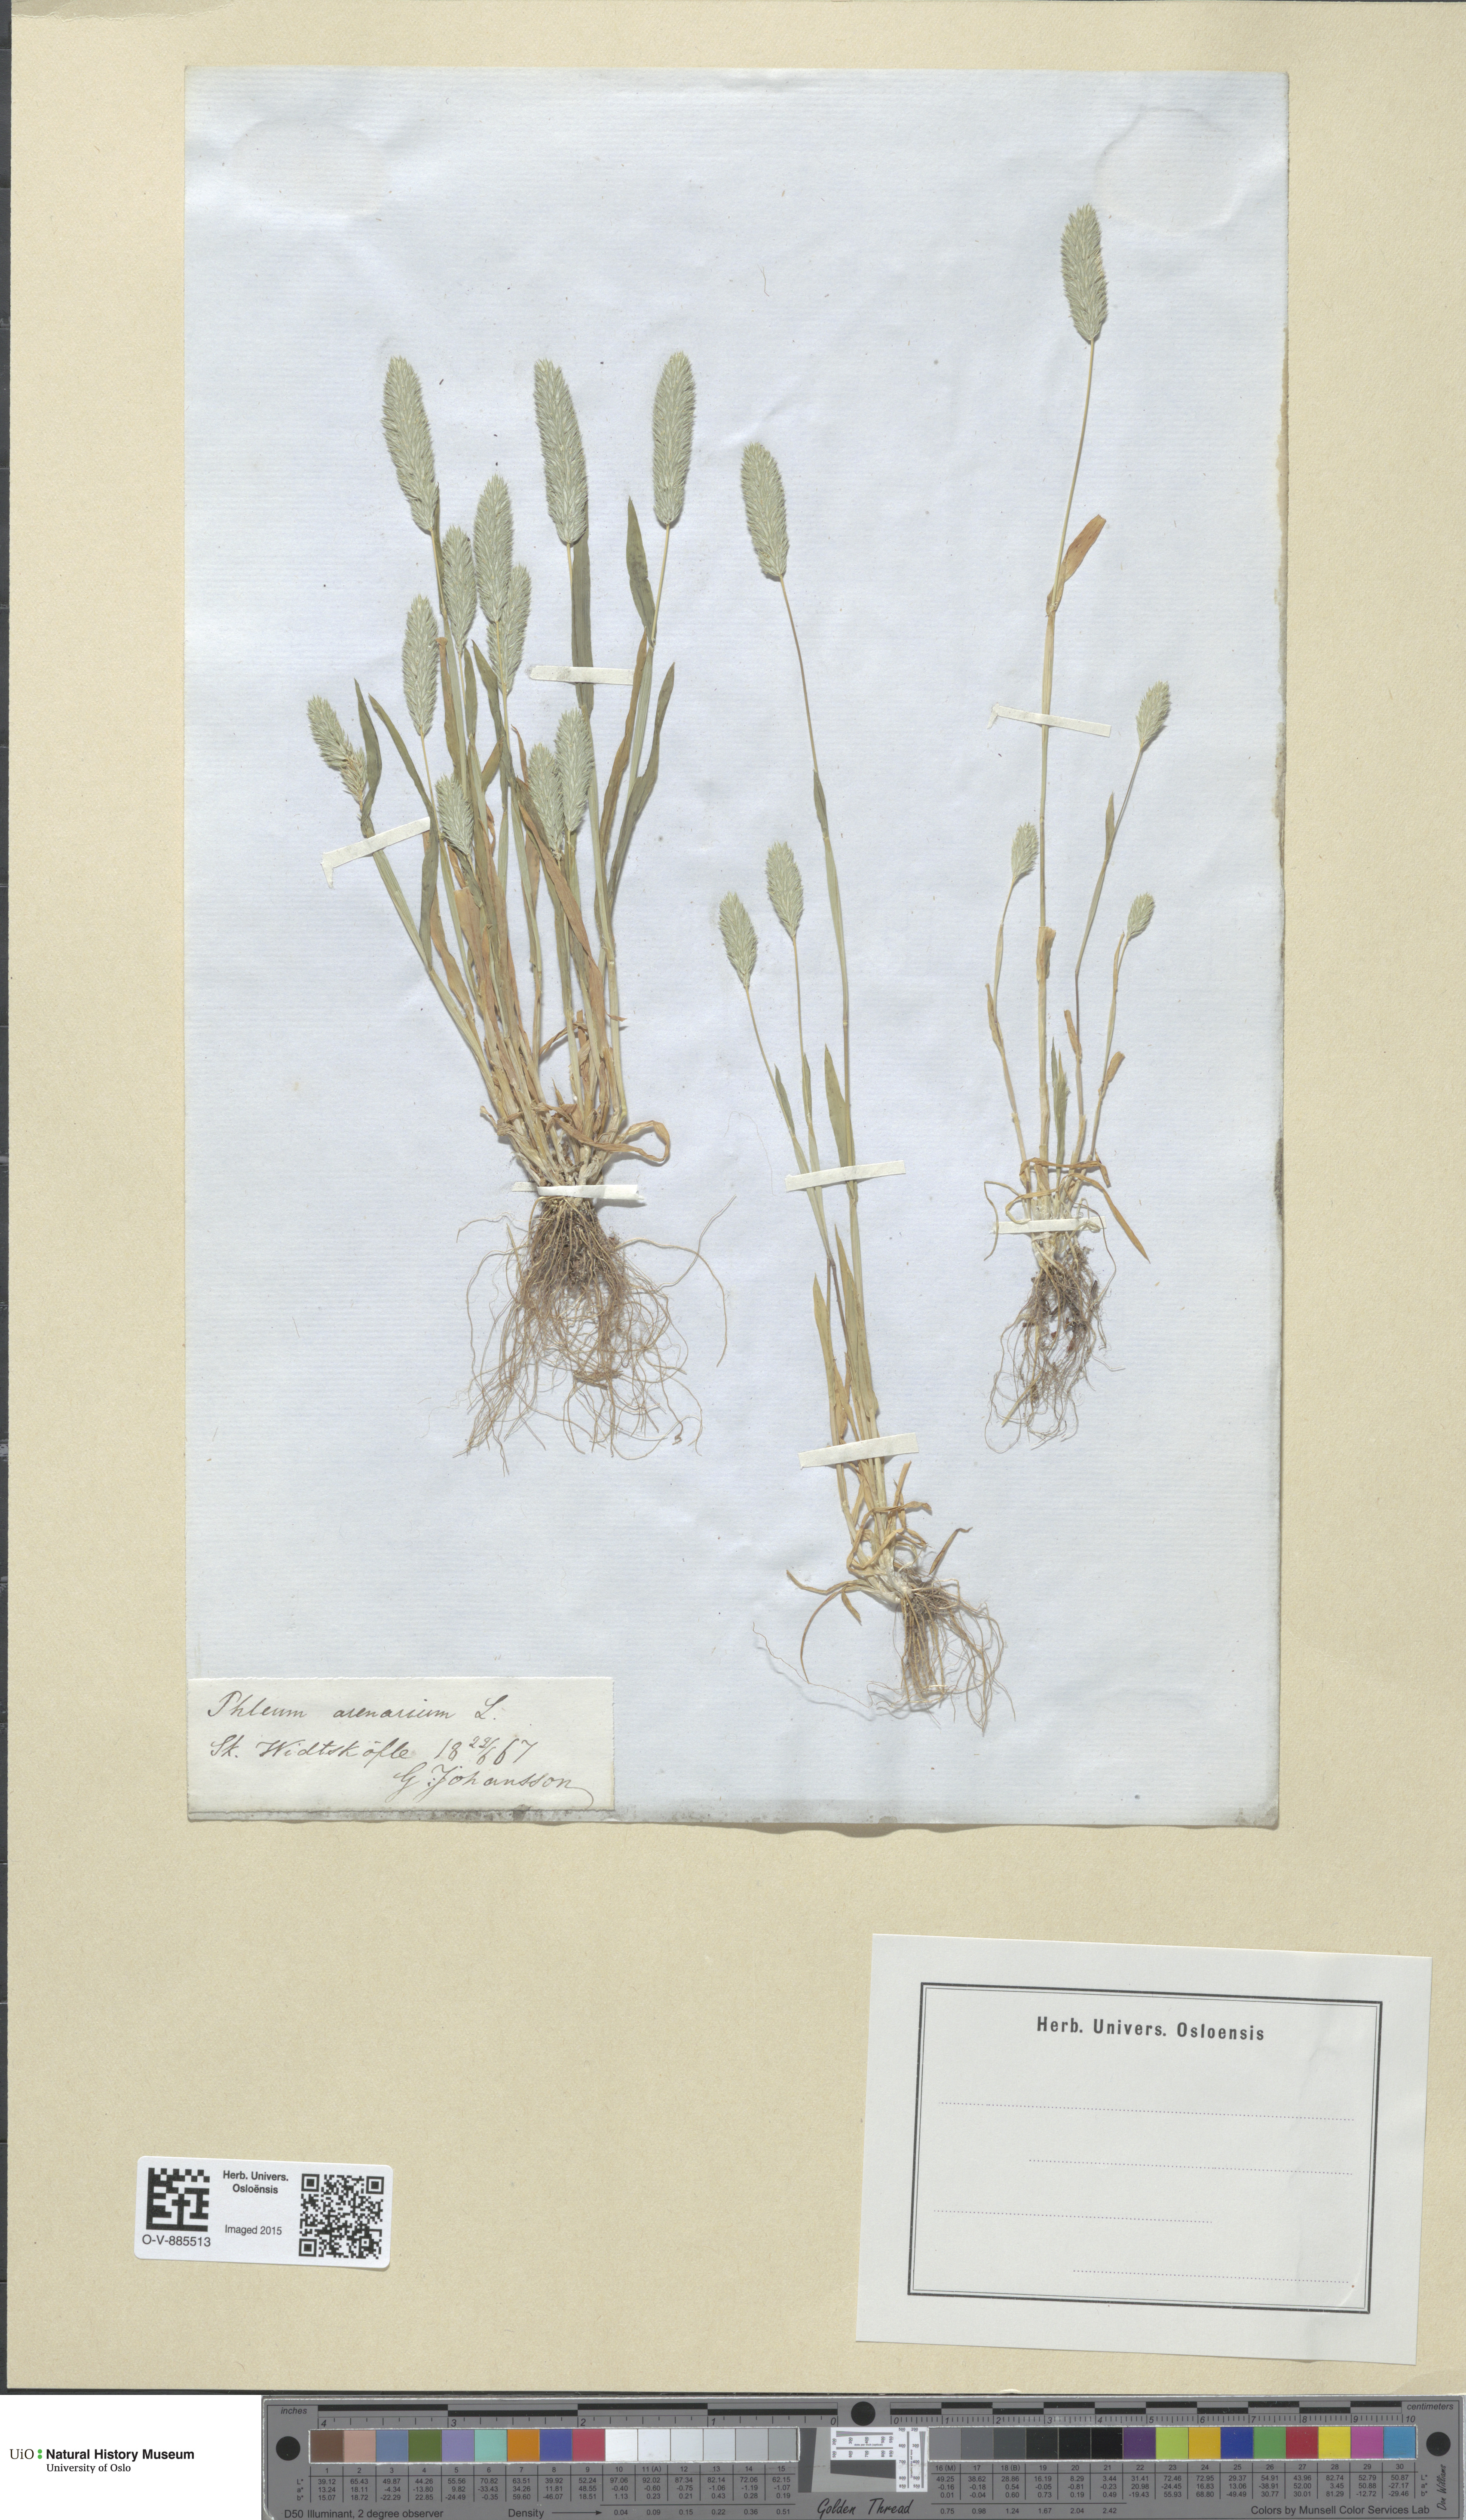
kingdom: Plantae
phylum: Tracheophyta
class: Liliopsida
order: Poales
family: Poaceae
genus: Phleum
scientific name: Phleum arenarium
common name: Sand cat's-tail
